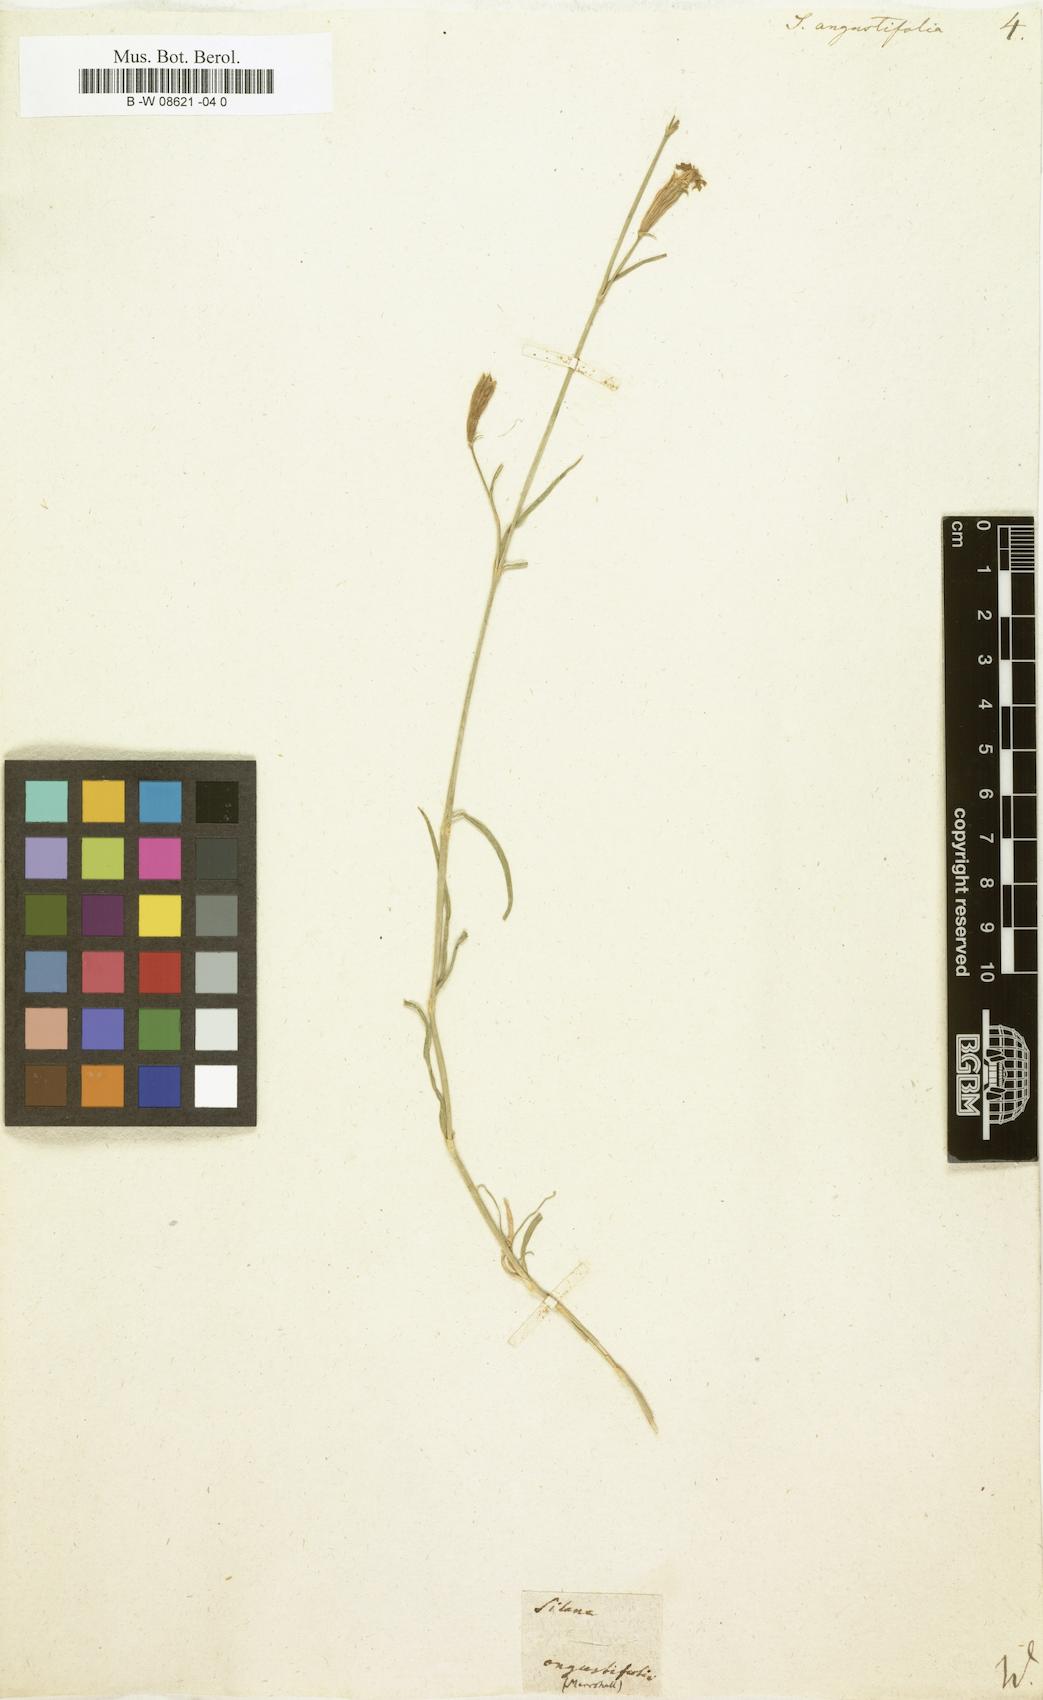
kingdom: Plantae
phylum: Tracheophyta
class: Magnoliopsida
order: Caryophyllales
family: Caryophyllaceae
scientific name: Caryophyllaceae
